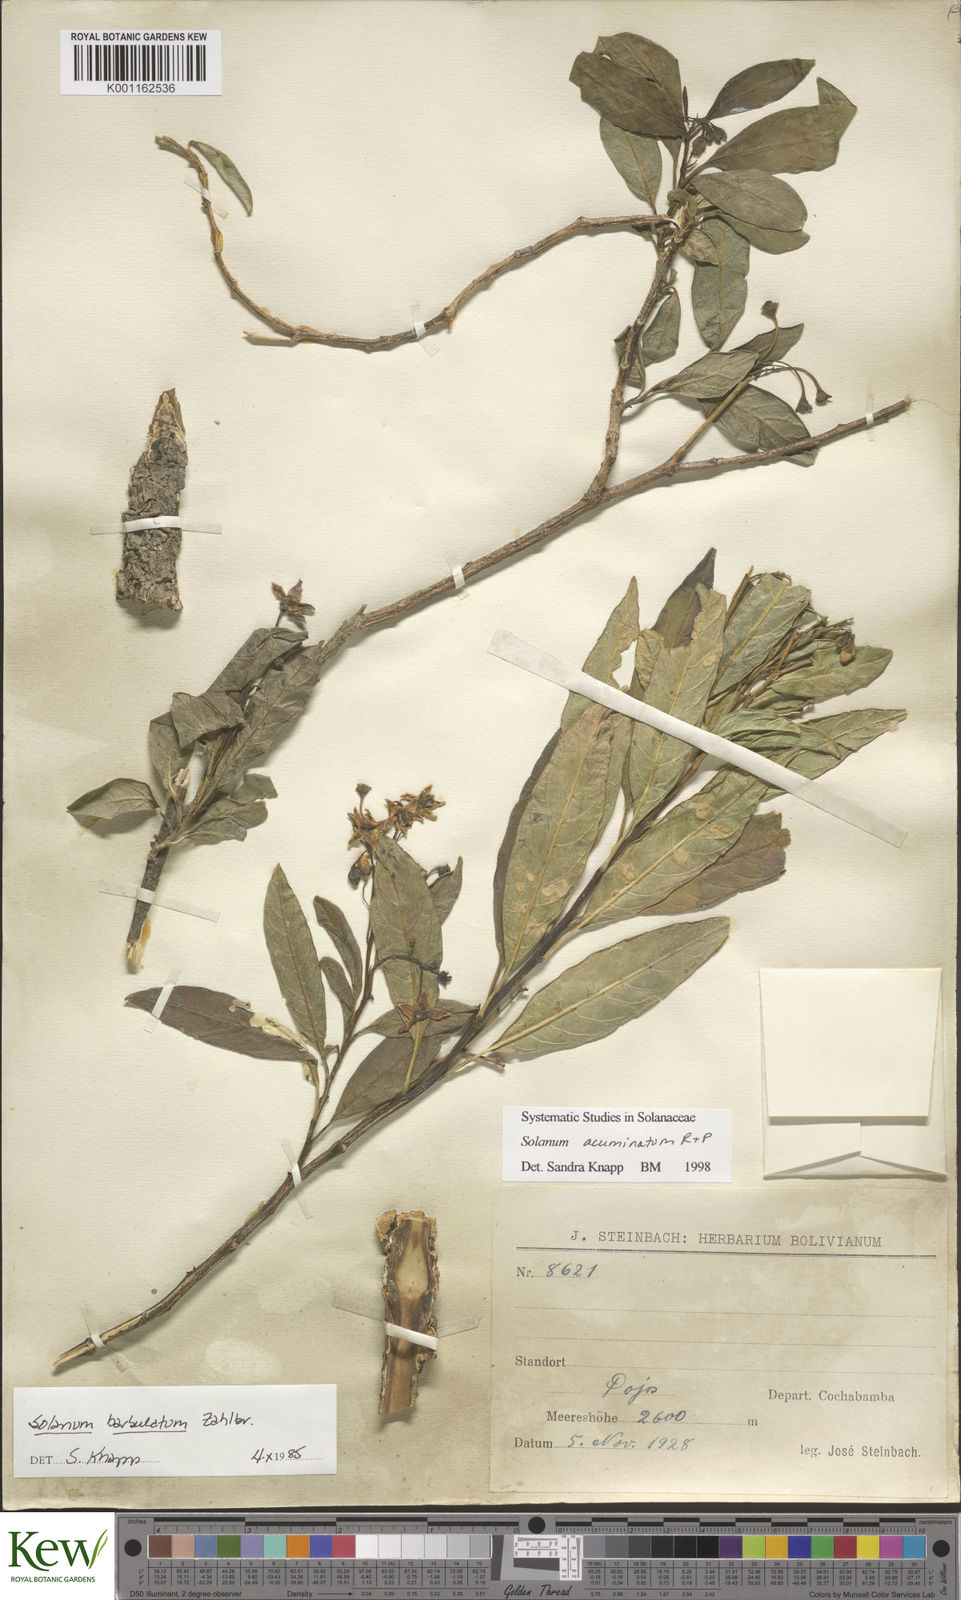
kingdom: Plantae
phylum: Tracheophyta
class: Magnoliopsida
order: Solanales
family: Solanaceae
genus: Solanum
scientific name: Solanum acuminatum
